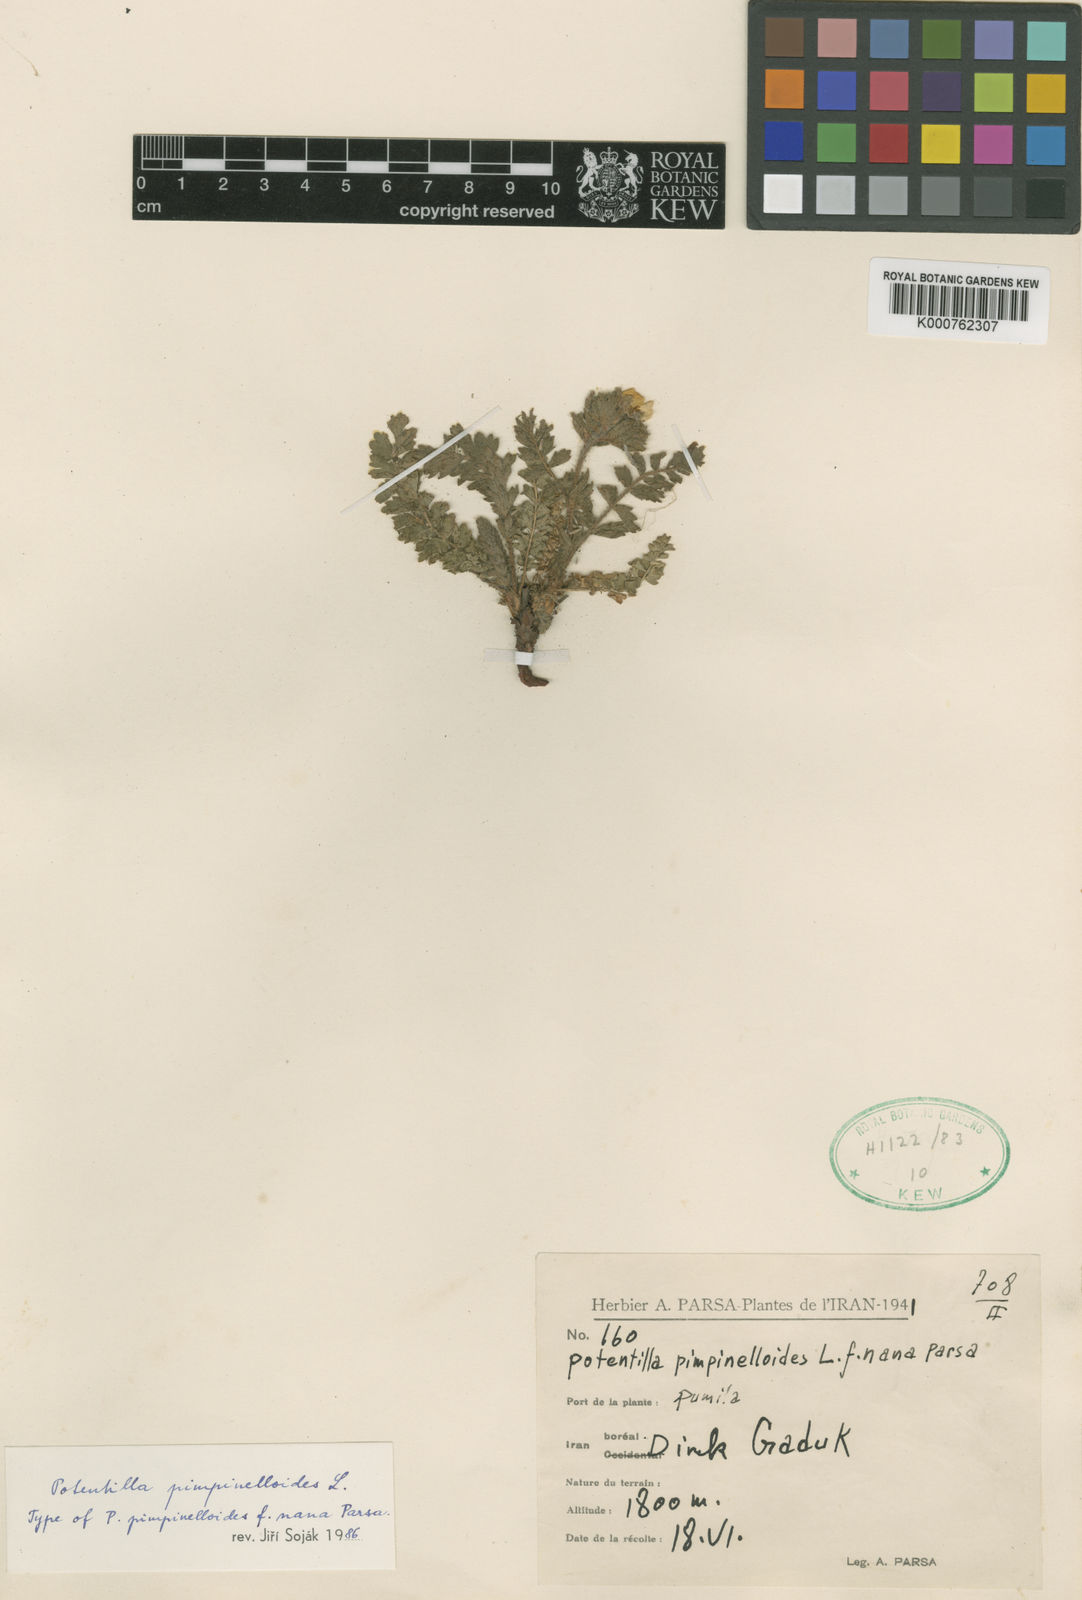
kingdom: Plantae
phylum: Tracheophyta
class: Magnoliopsida
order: Rosales
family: Rosaceae
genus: Potentilla
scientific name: Potentilla pimpinelloides
